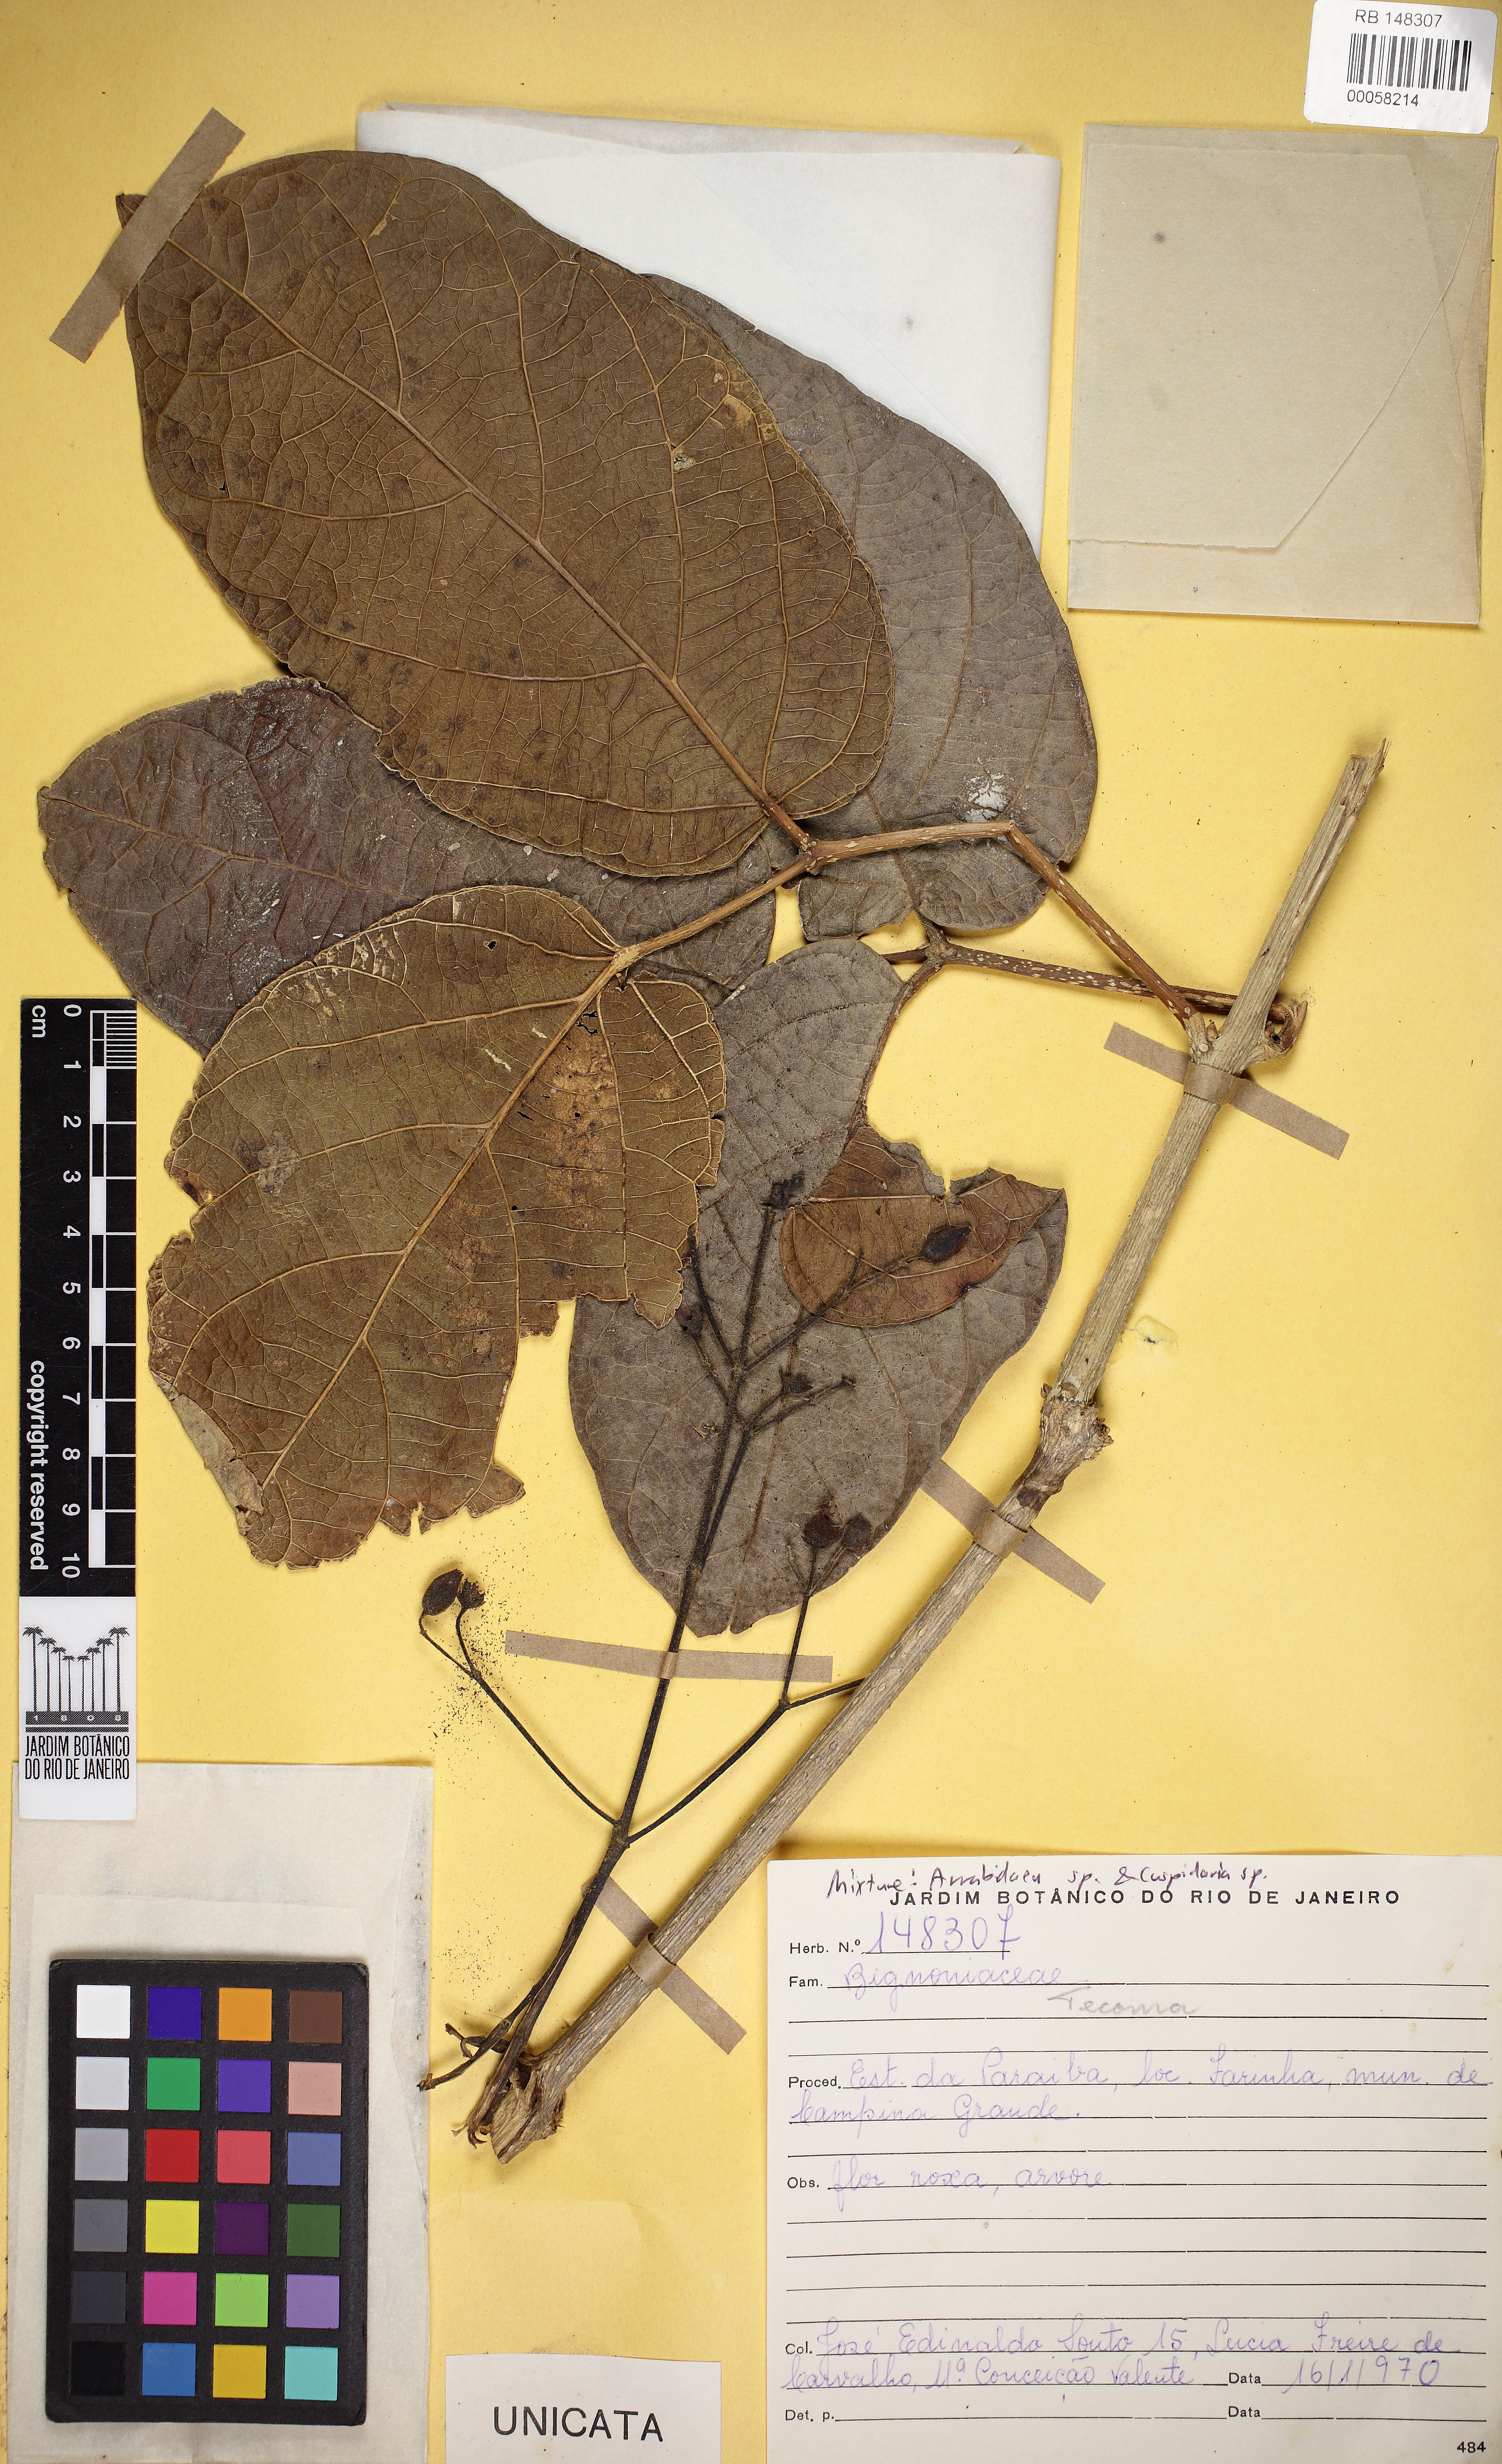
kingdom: Plantae
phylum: Tracheophyta
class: Magnoliopsida
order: Lamiales
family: Bignoniaceae
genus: Tecoma
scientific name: Tecoma
